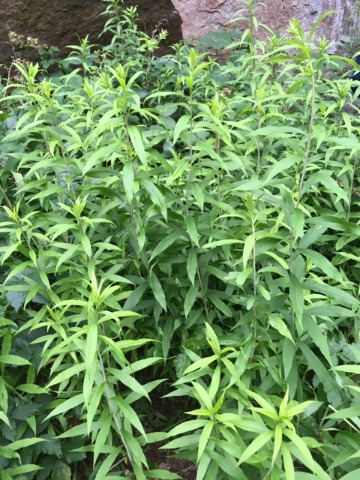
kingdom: Plantae
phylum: Tracheophyta
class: Magnoliopsida
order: Asterales
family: Asteraceae
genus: Solidago
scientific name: Solidago gigantea
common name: Sildig gyldenris
